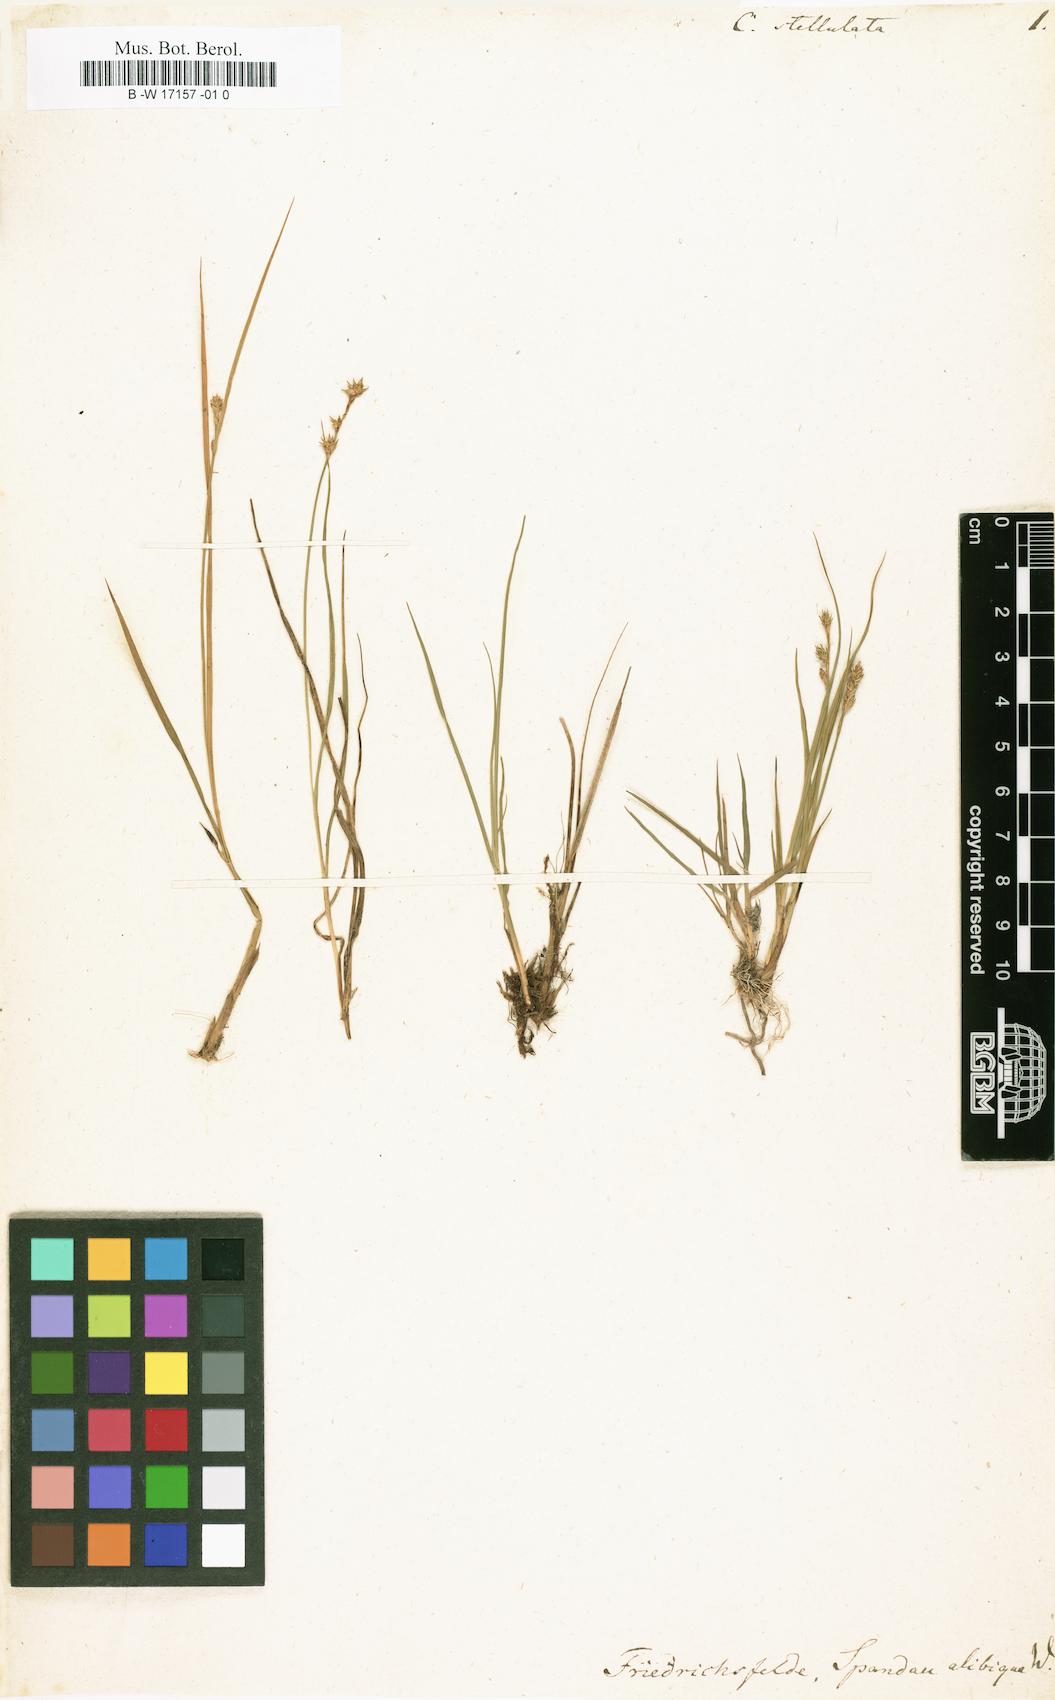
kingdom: Plantae
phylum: Tracheophyta
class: Liliopsida
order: Poales
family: Cyperaceae
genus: Carex
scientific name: Carex
